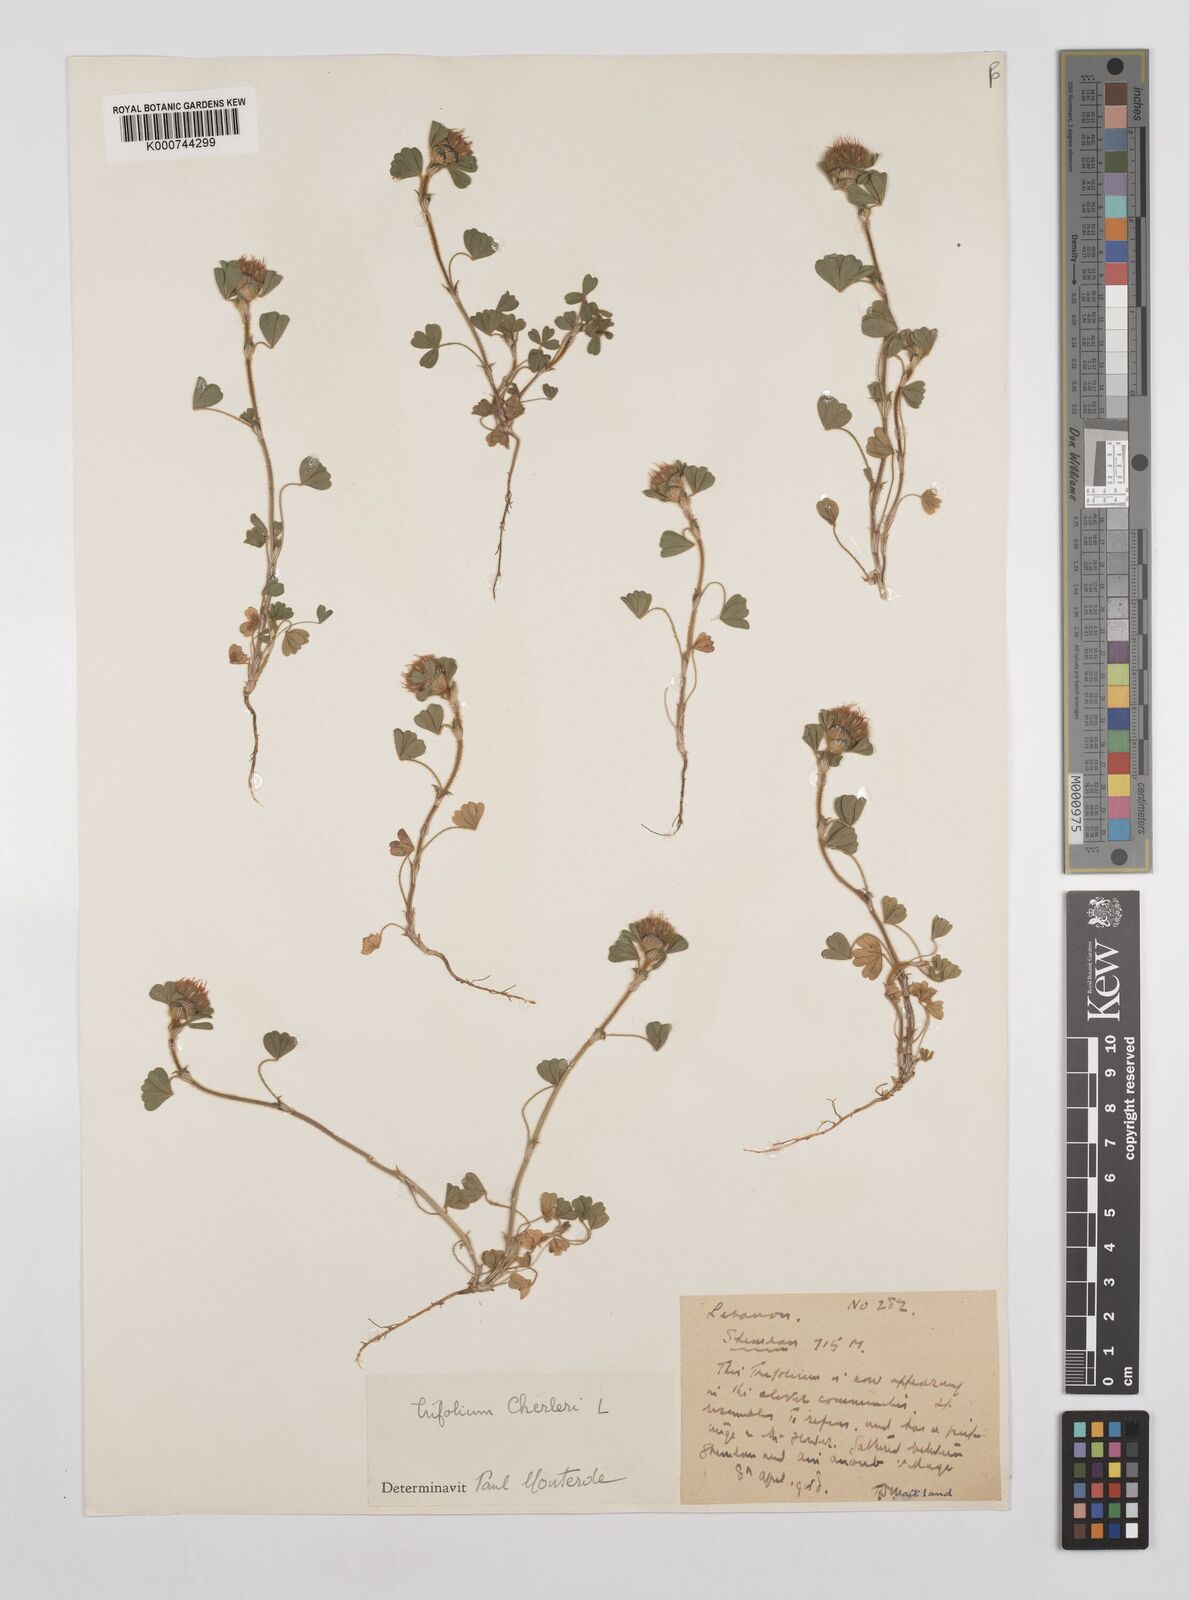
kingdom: Plantae
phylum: Tracheophyta
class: Magnoliopsida
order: Fabales
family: Fabaceae
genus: Trifolium
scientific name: Trifolium cherleri
